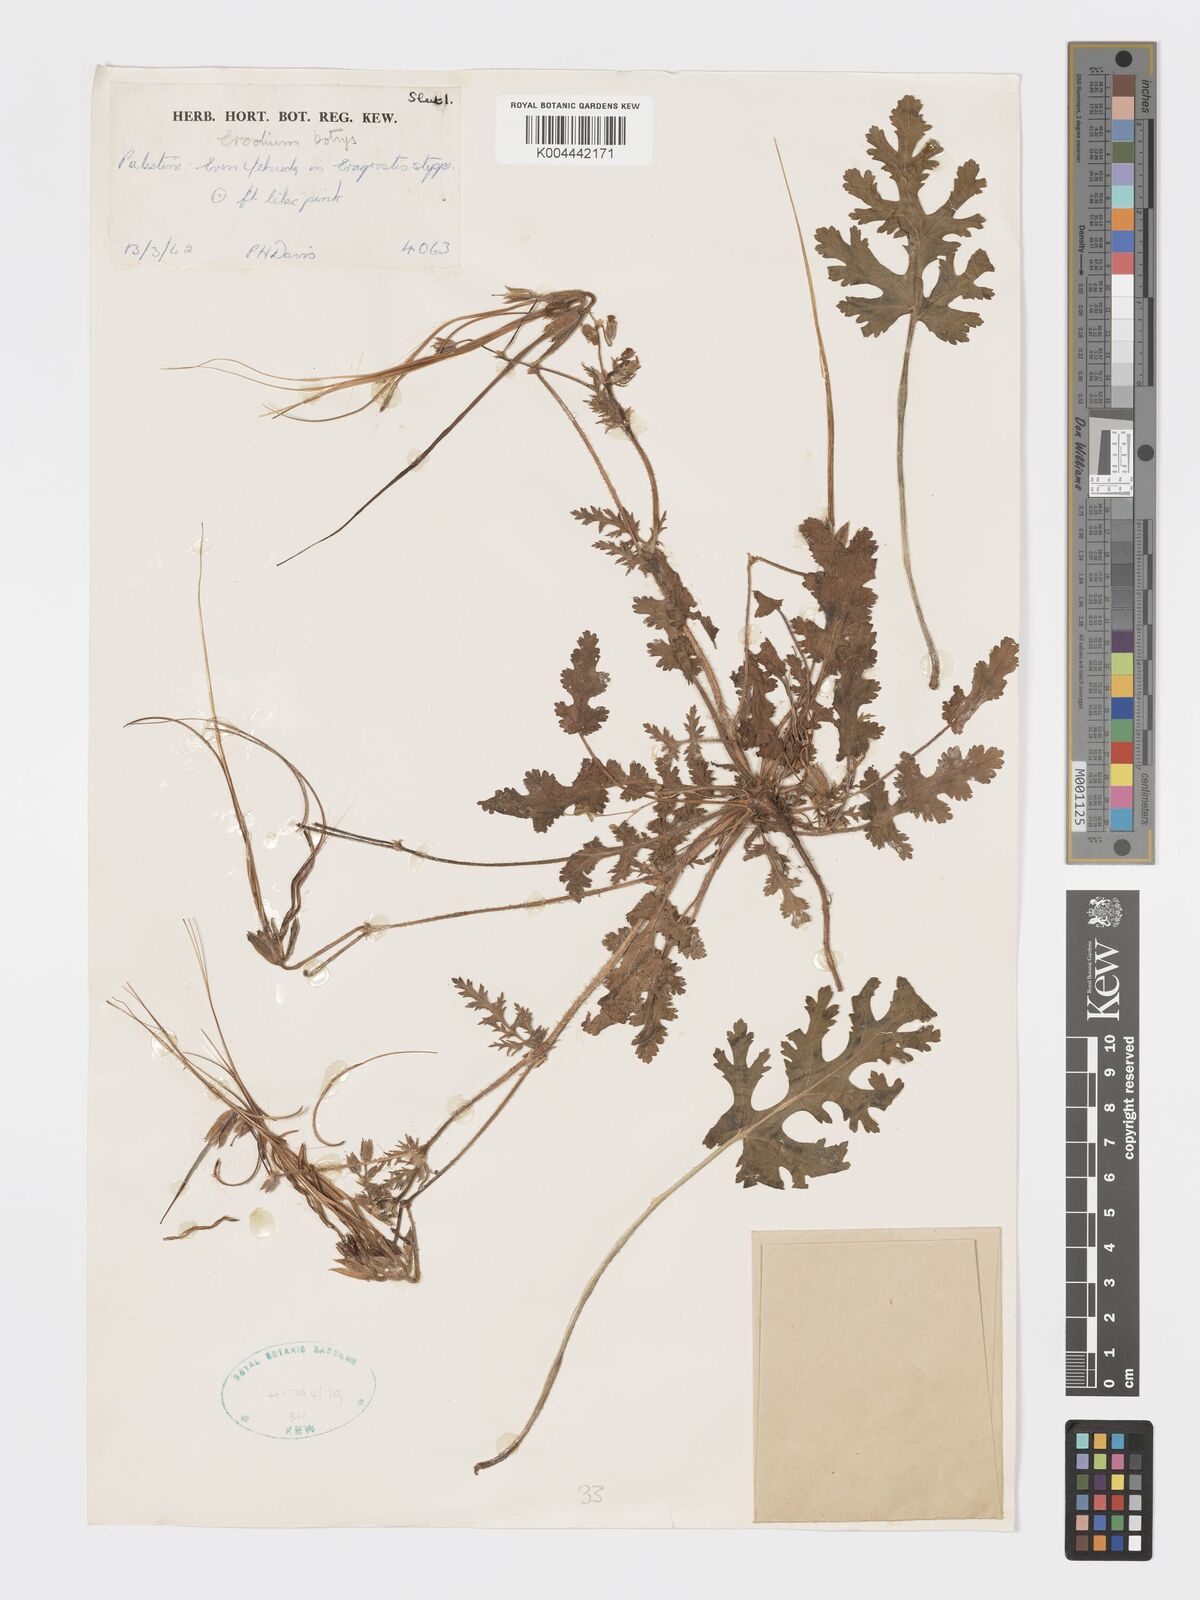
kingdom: Plantae
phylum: Tracheophyta
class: Magnoliopsida
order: Geraniales
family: Geraniaceae
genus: Erodium
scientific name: Erodium
